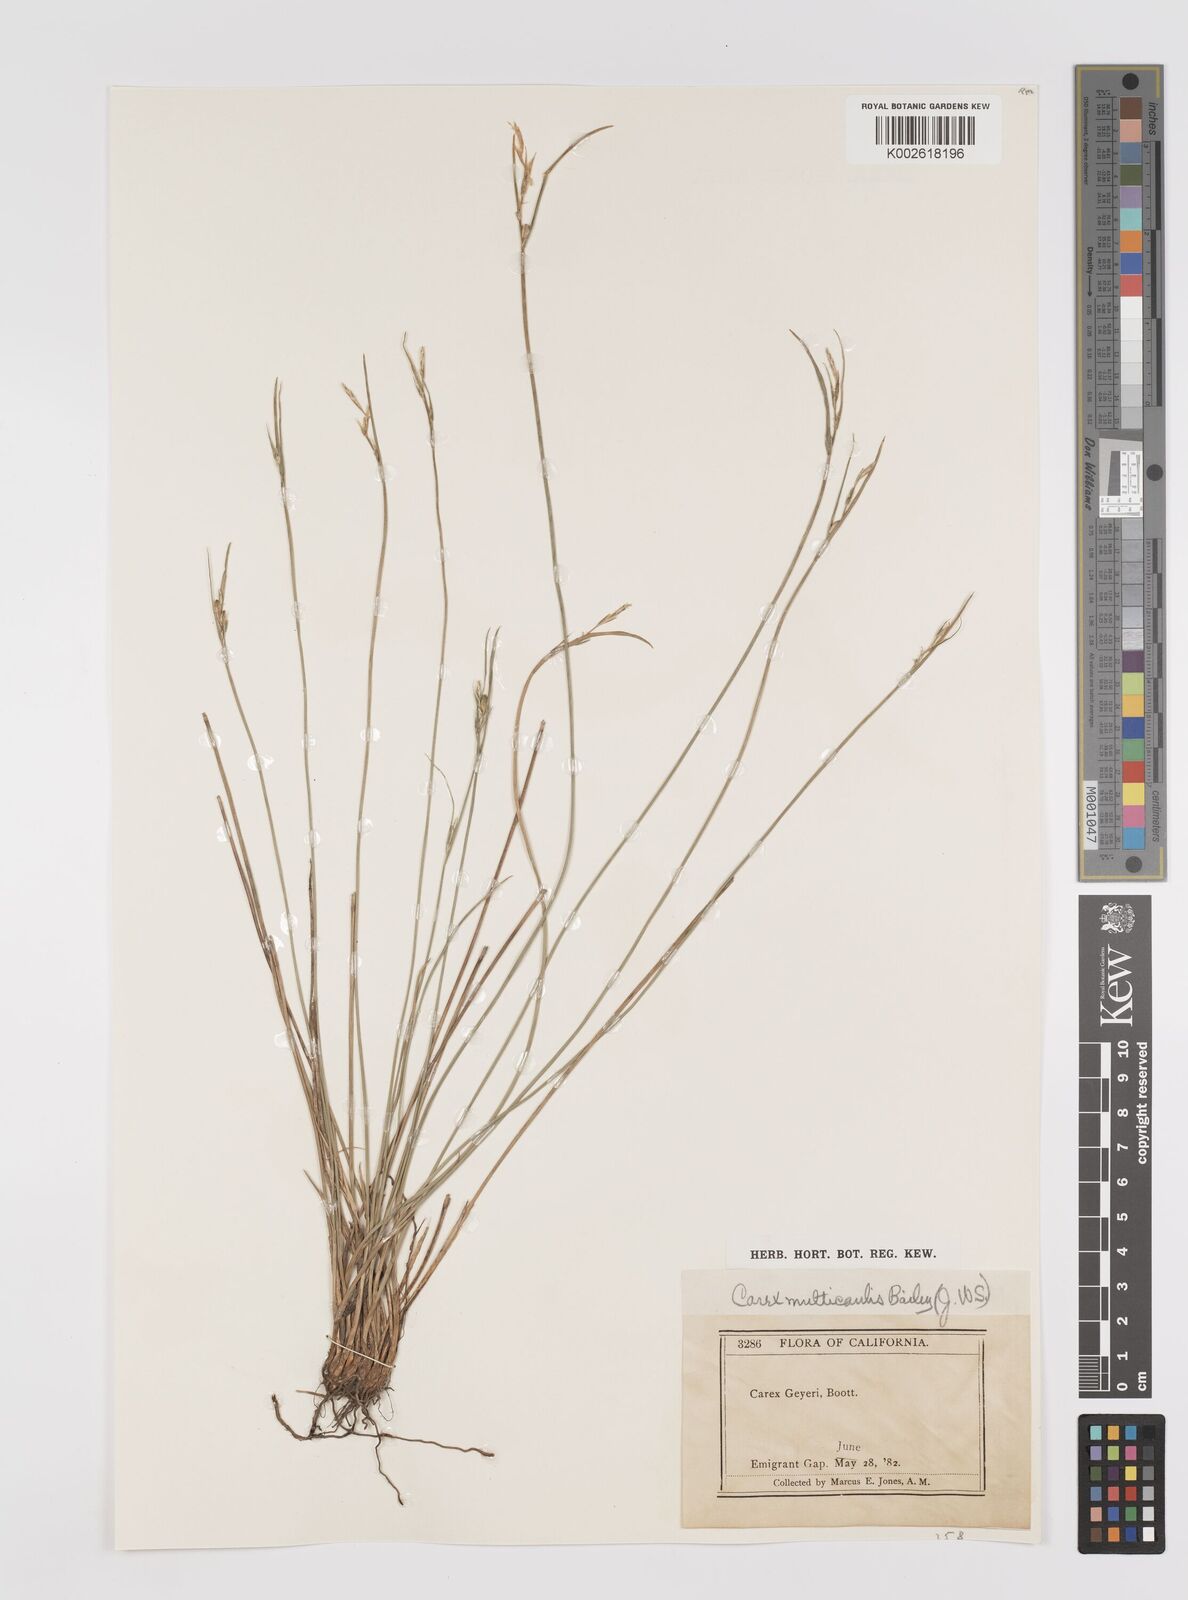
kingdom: Plantae
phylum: Tracheophyta
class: Liliopsida
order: Poales
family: Cyperaceae
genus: Carex
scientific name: Carex geyeri
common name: Elk sedge
